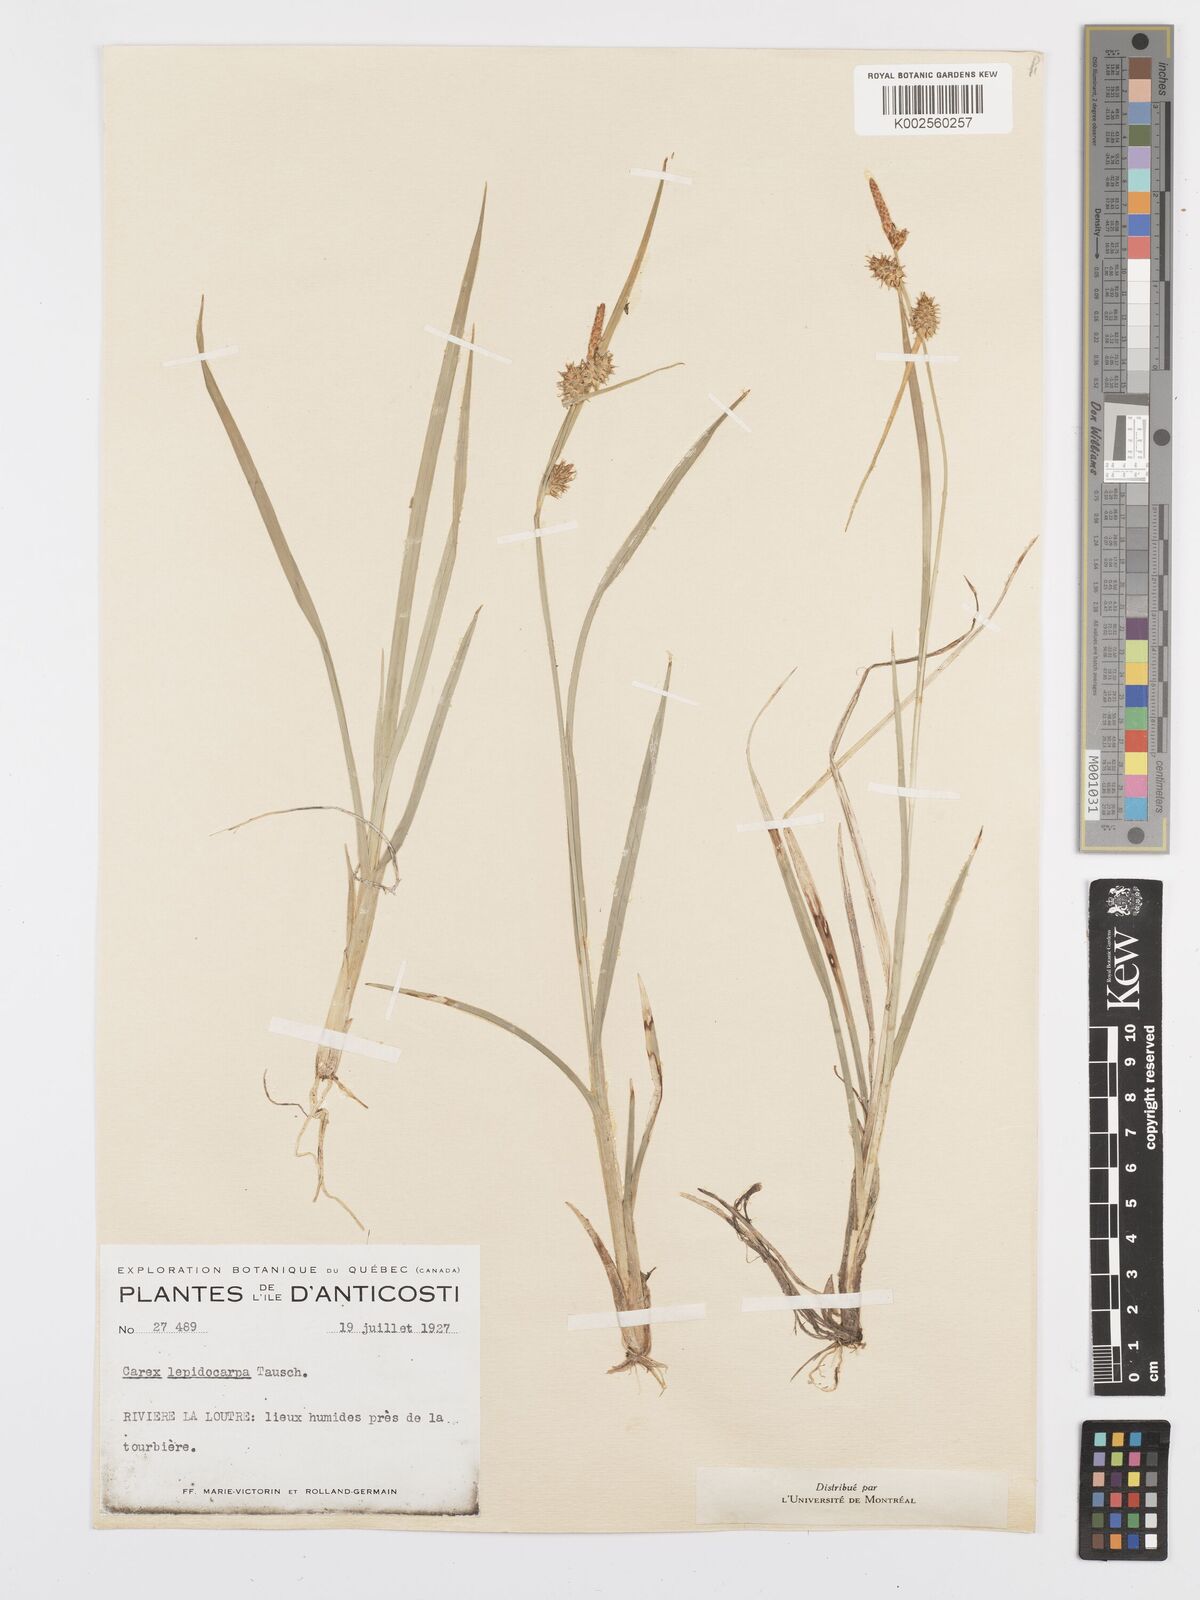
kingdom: Plantae
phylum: Tracheophyta
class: Liliopsida
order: Poales
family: Cyperaceae
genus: Carex
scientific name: Carex flava
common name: Large yellow-sedge
